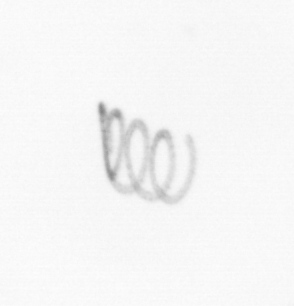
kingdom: Chromista
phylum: Ochrophyta
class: Bacillariophyceae
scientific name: Bacillariophyceae
